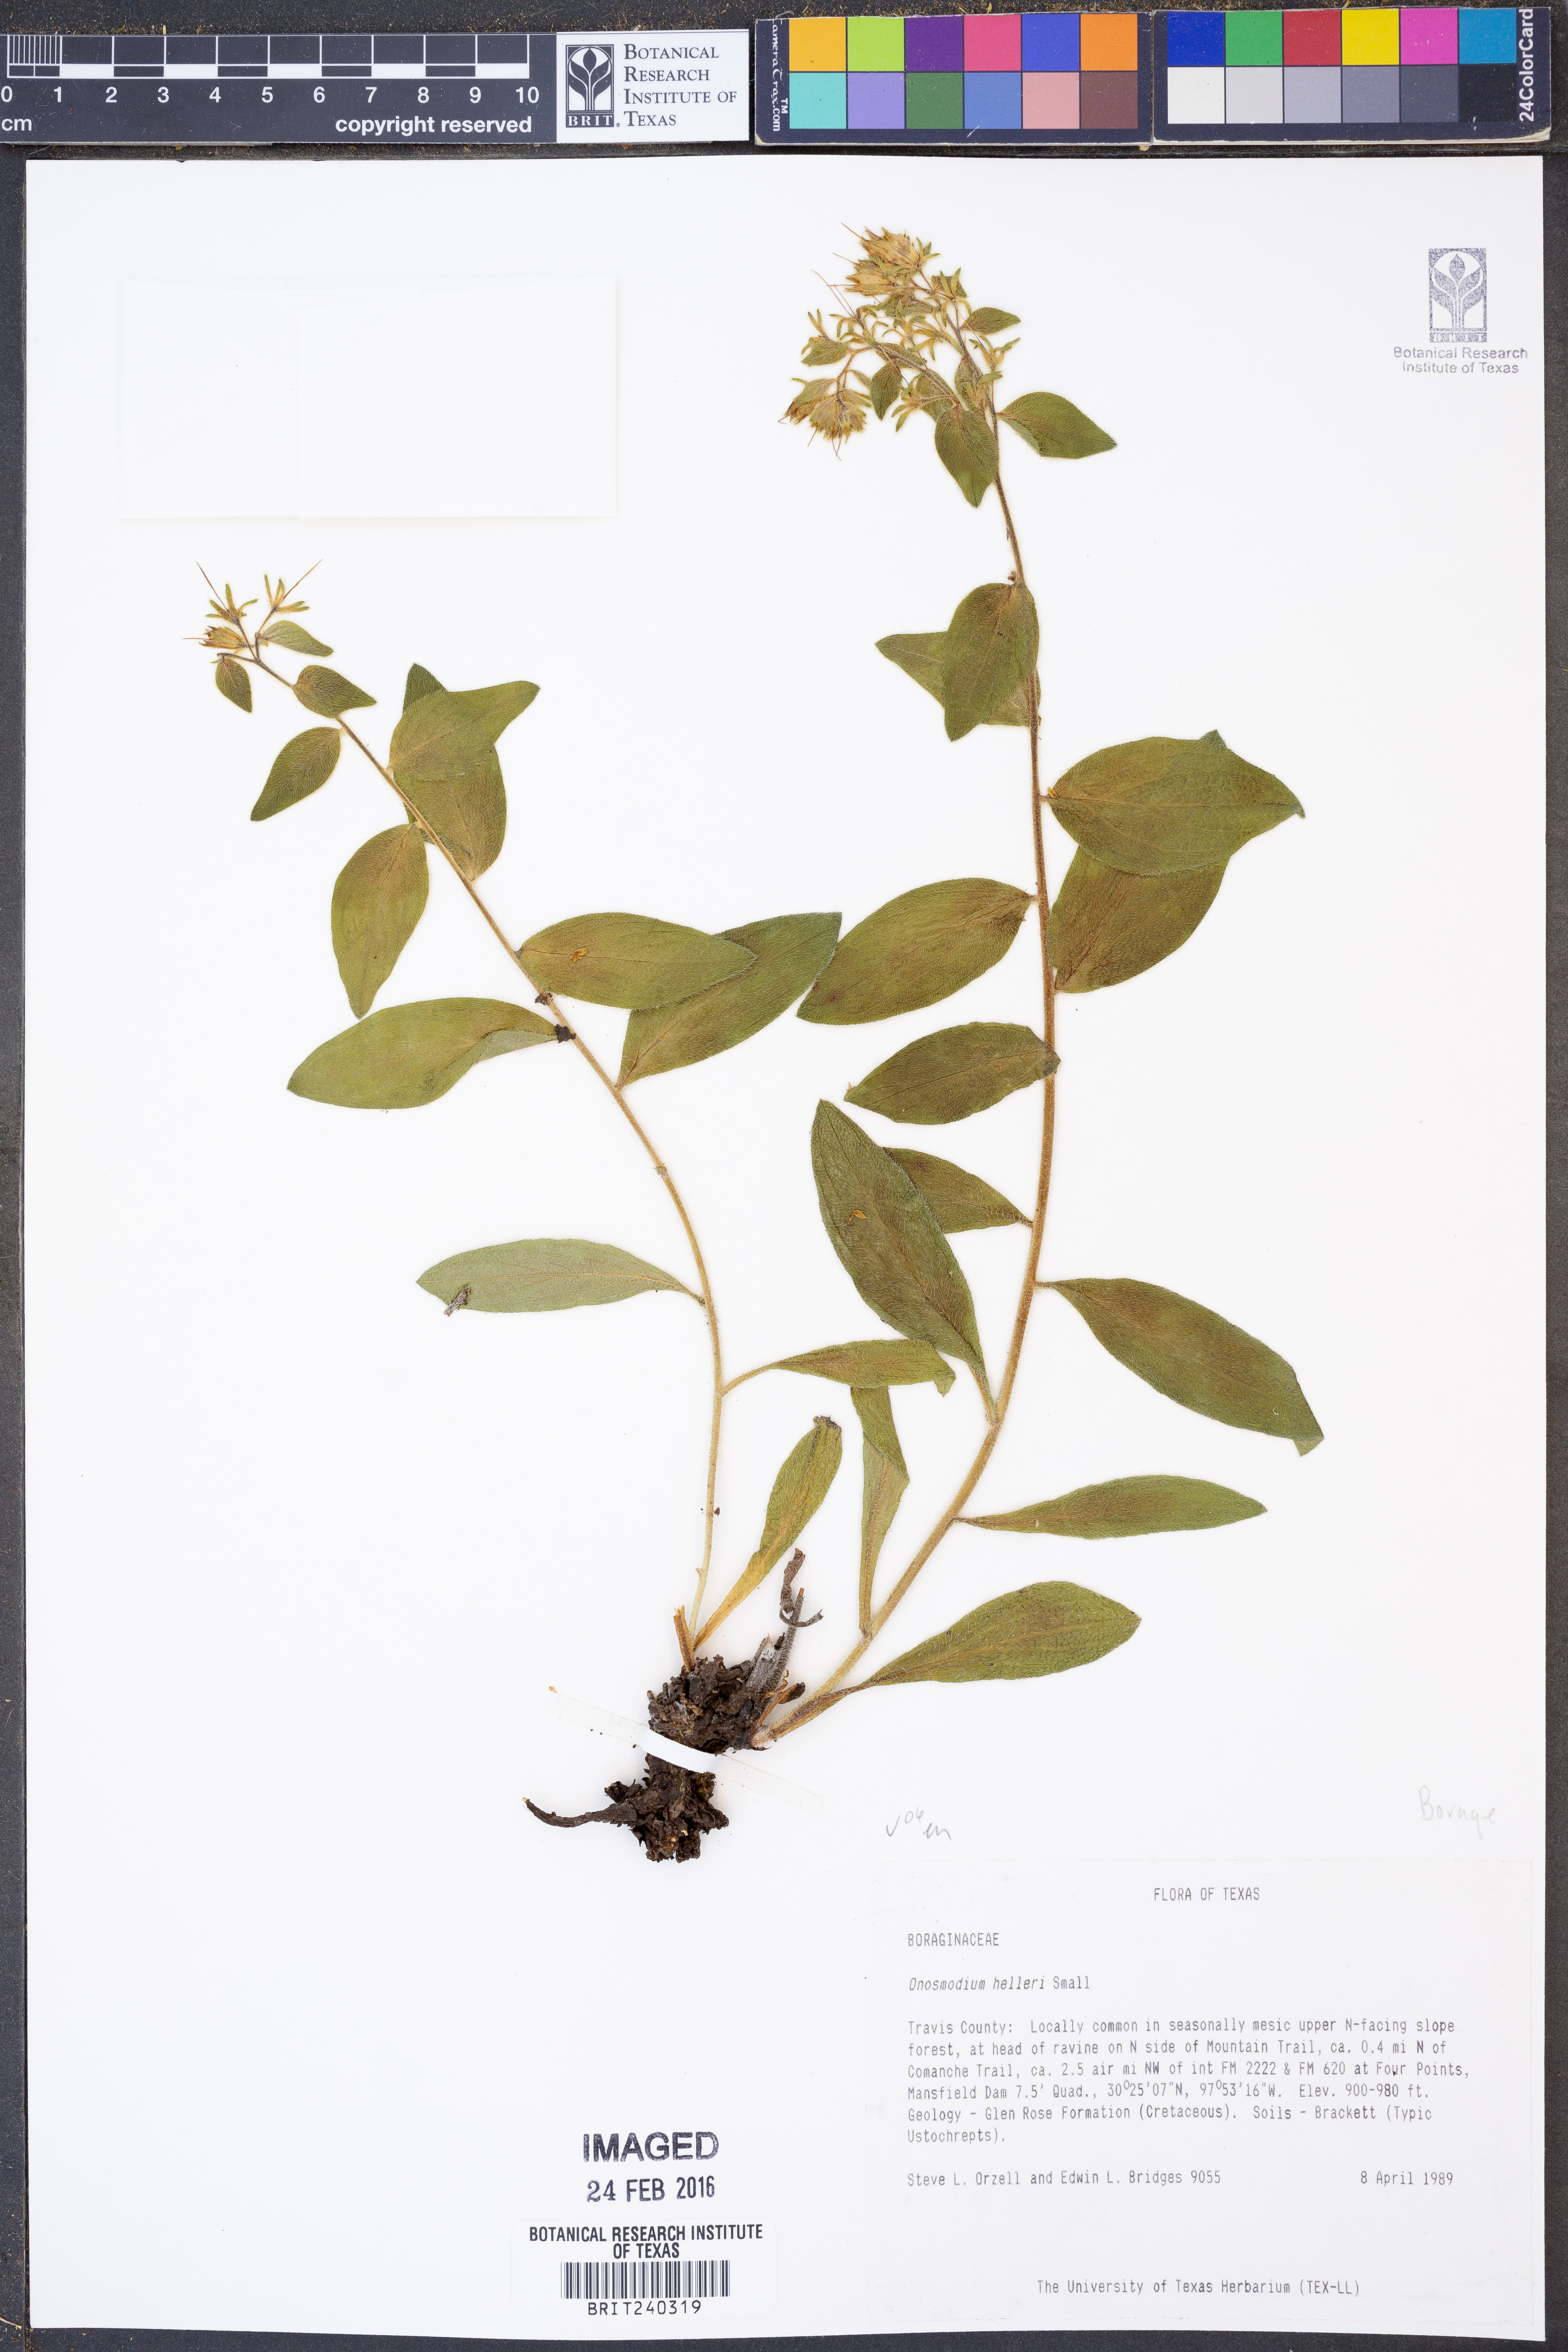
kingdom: Plantae
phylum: Tracheophyta
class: Magnoliopsida
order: Boraginales
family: Boraginaceae
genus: Lithospermum
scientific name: Lithospermum helleri
